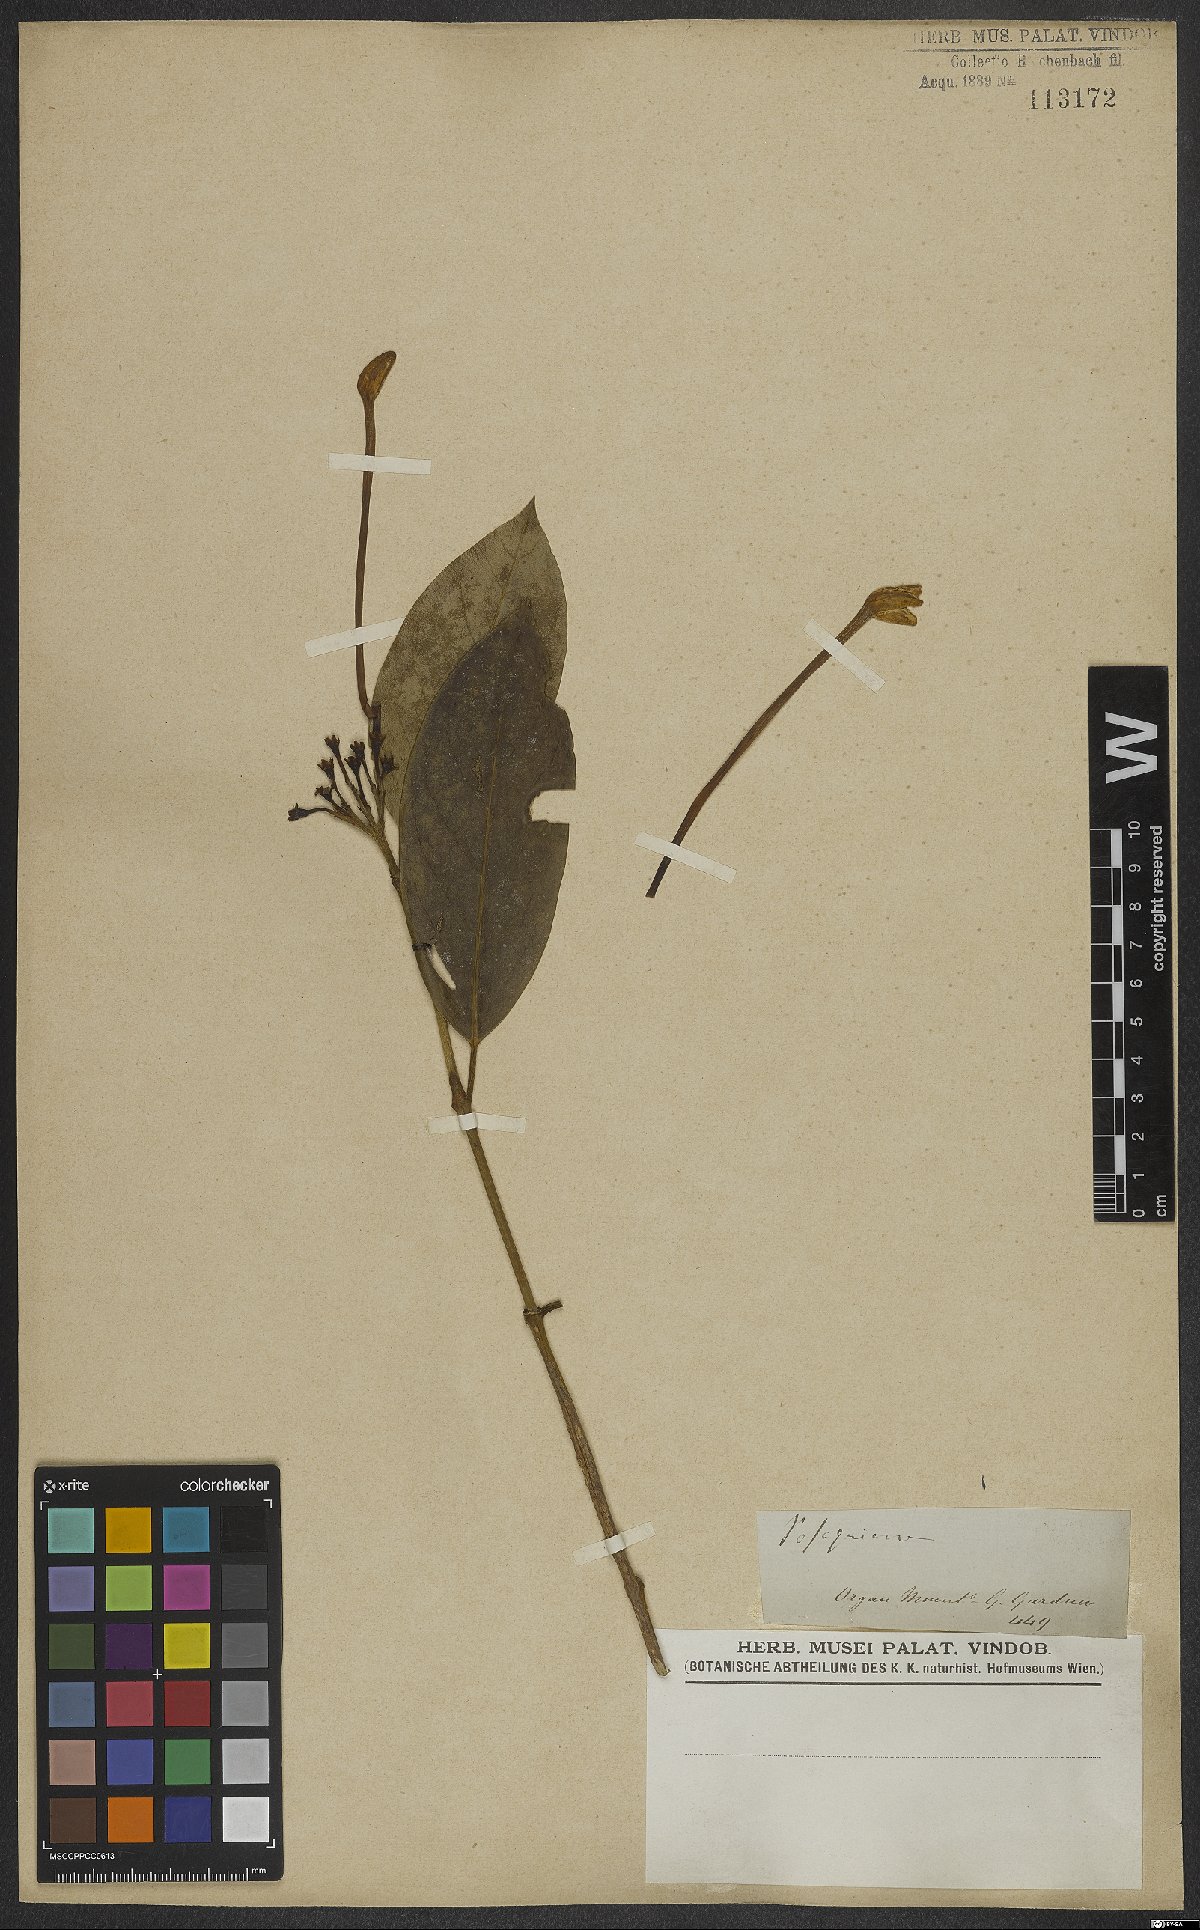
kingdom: Plantae
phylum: Tracheophyta
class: Magnoliopsida
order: Gentianales
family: Rubiaceae
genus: Posoqueria
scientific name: Posoqueria
